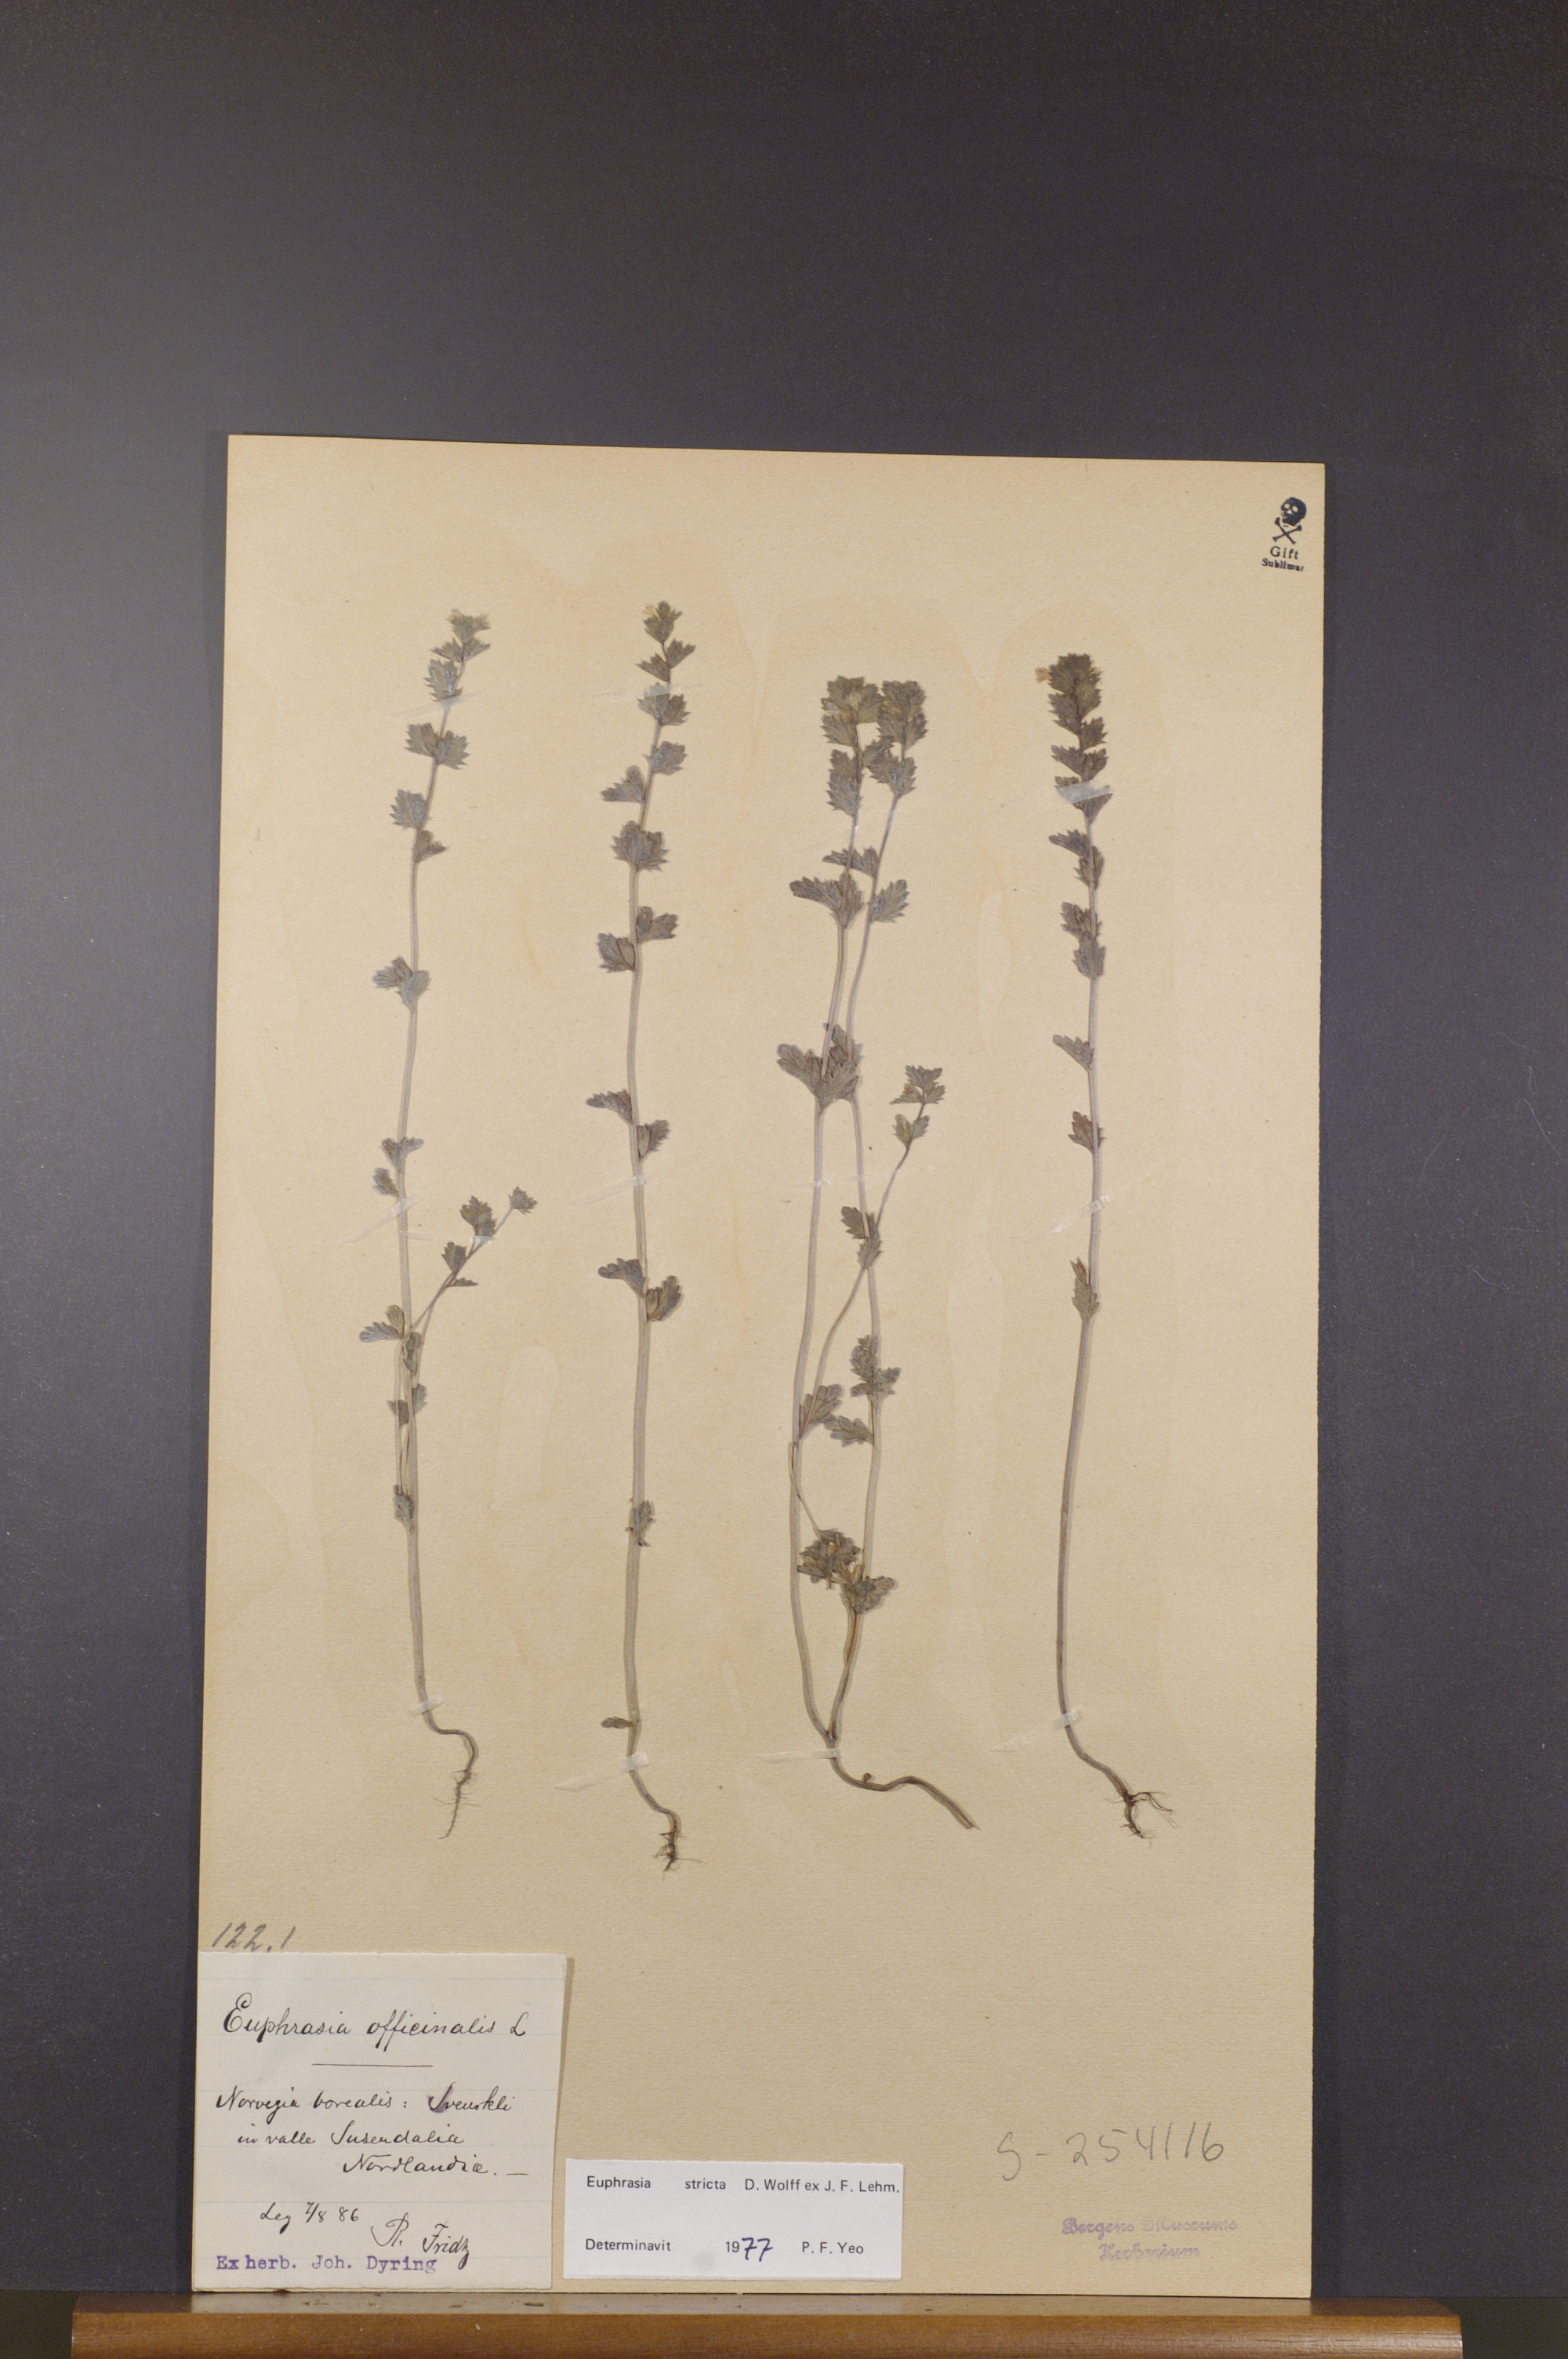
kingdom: Plantae
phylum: Tracheophyta
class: Magnoliopsida
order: Lamiales
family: Orobanchaceae
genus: Euphrasia
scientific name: Euphrasia stricta
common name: Drug eyebright
